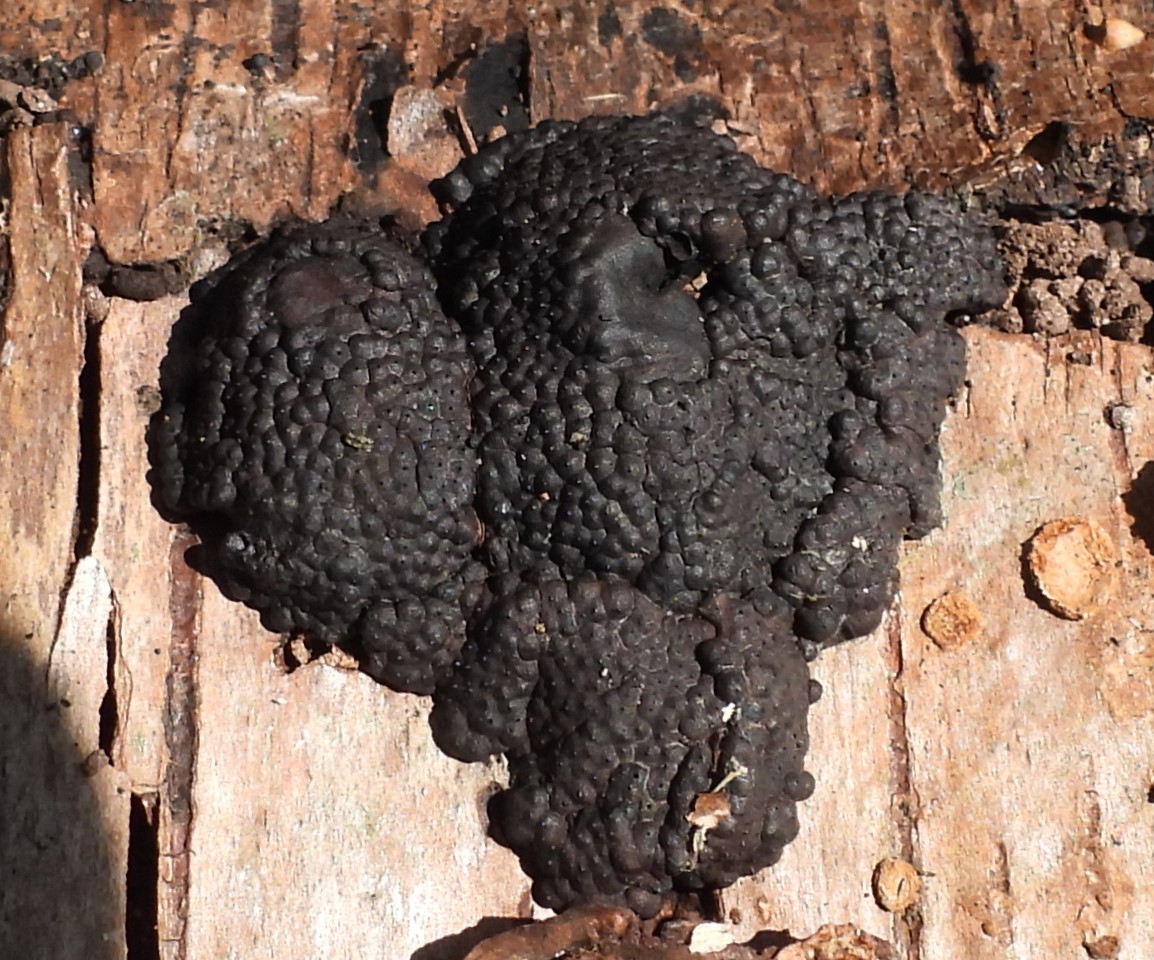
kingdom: Fungi
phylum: Ascomycota
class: Sordariomycetes
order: Xylariales
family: Hypoxylaceae
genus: Jackrogersella
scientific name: Jackrogersella multiformis
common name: foranderlig kulbær
